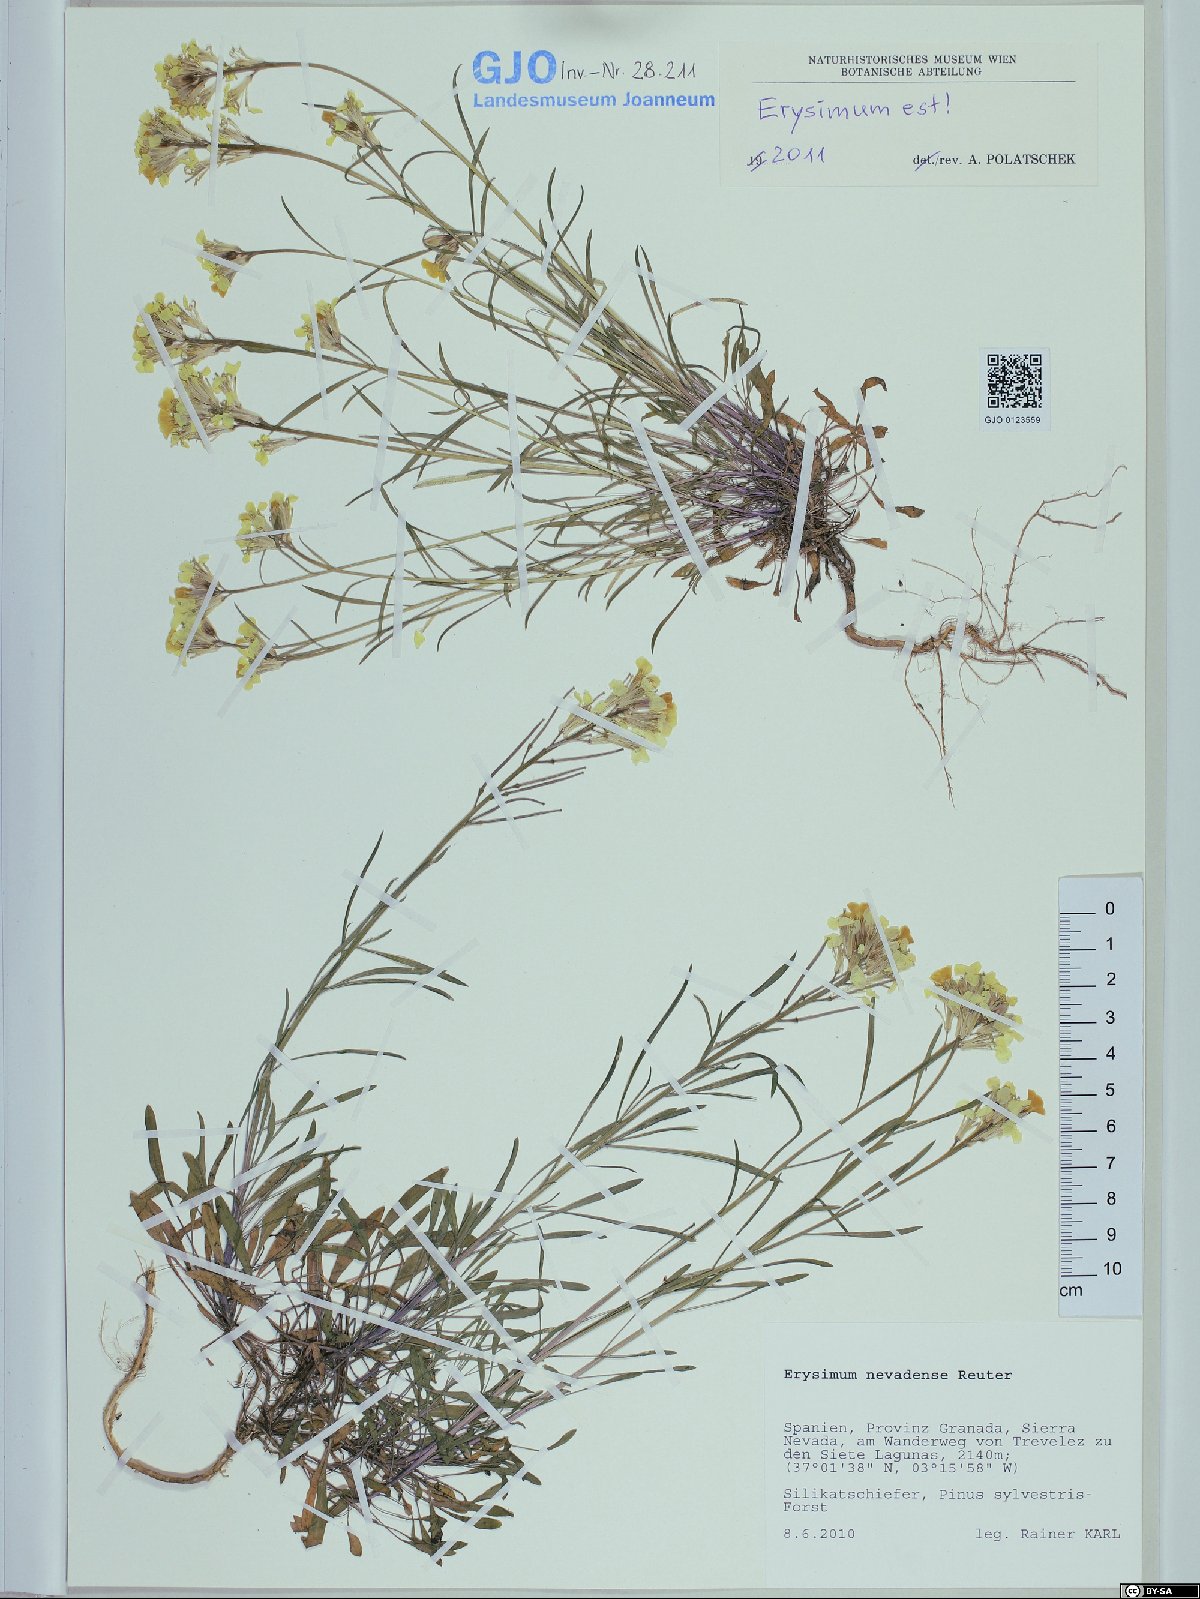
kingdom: Plantae
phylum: Tracheophyta
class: Magnoliopsida
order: Brassicales
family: Brassicaceae
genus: Erysimum
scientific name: Erysimum nevadense
